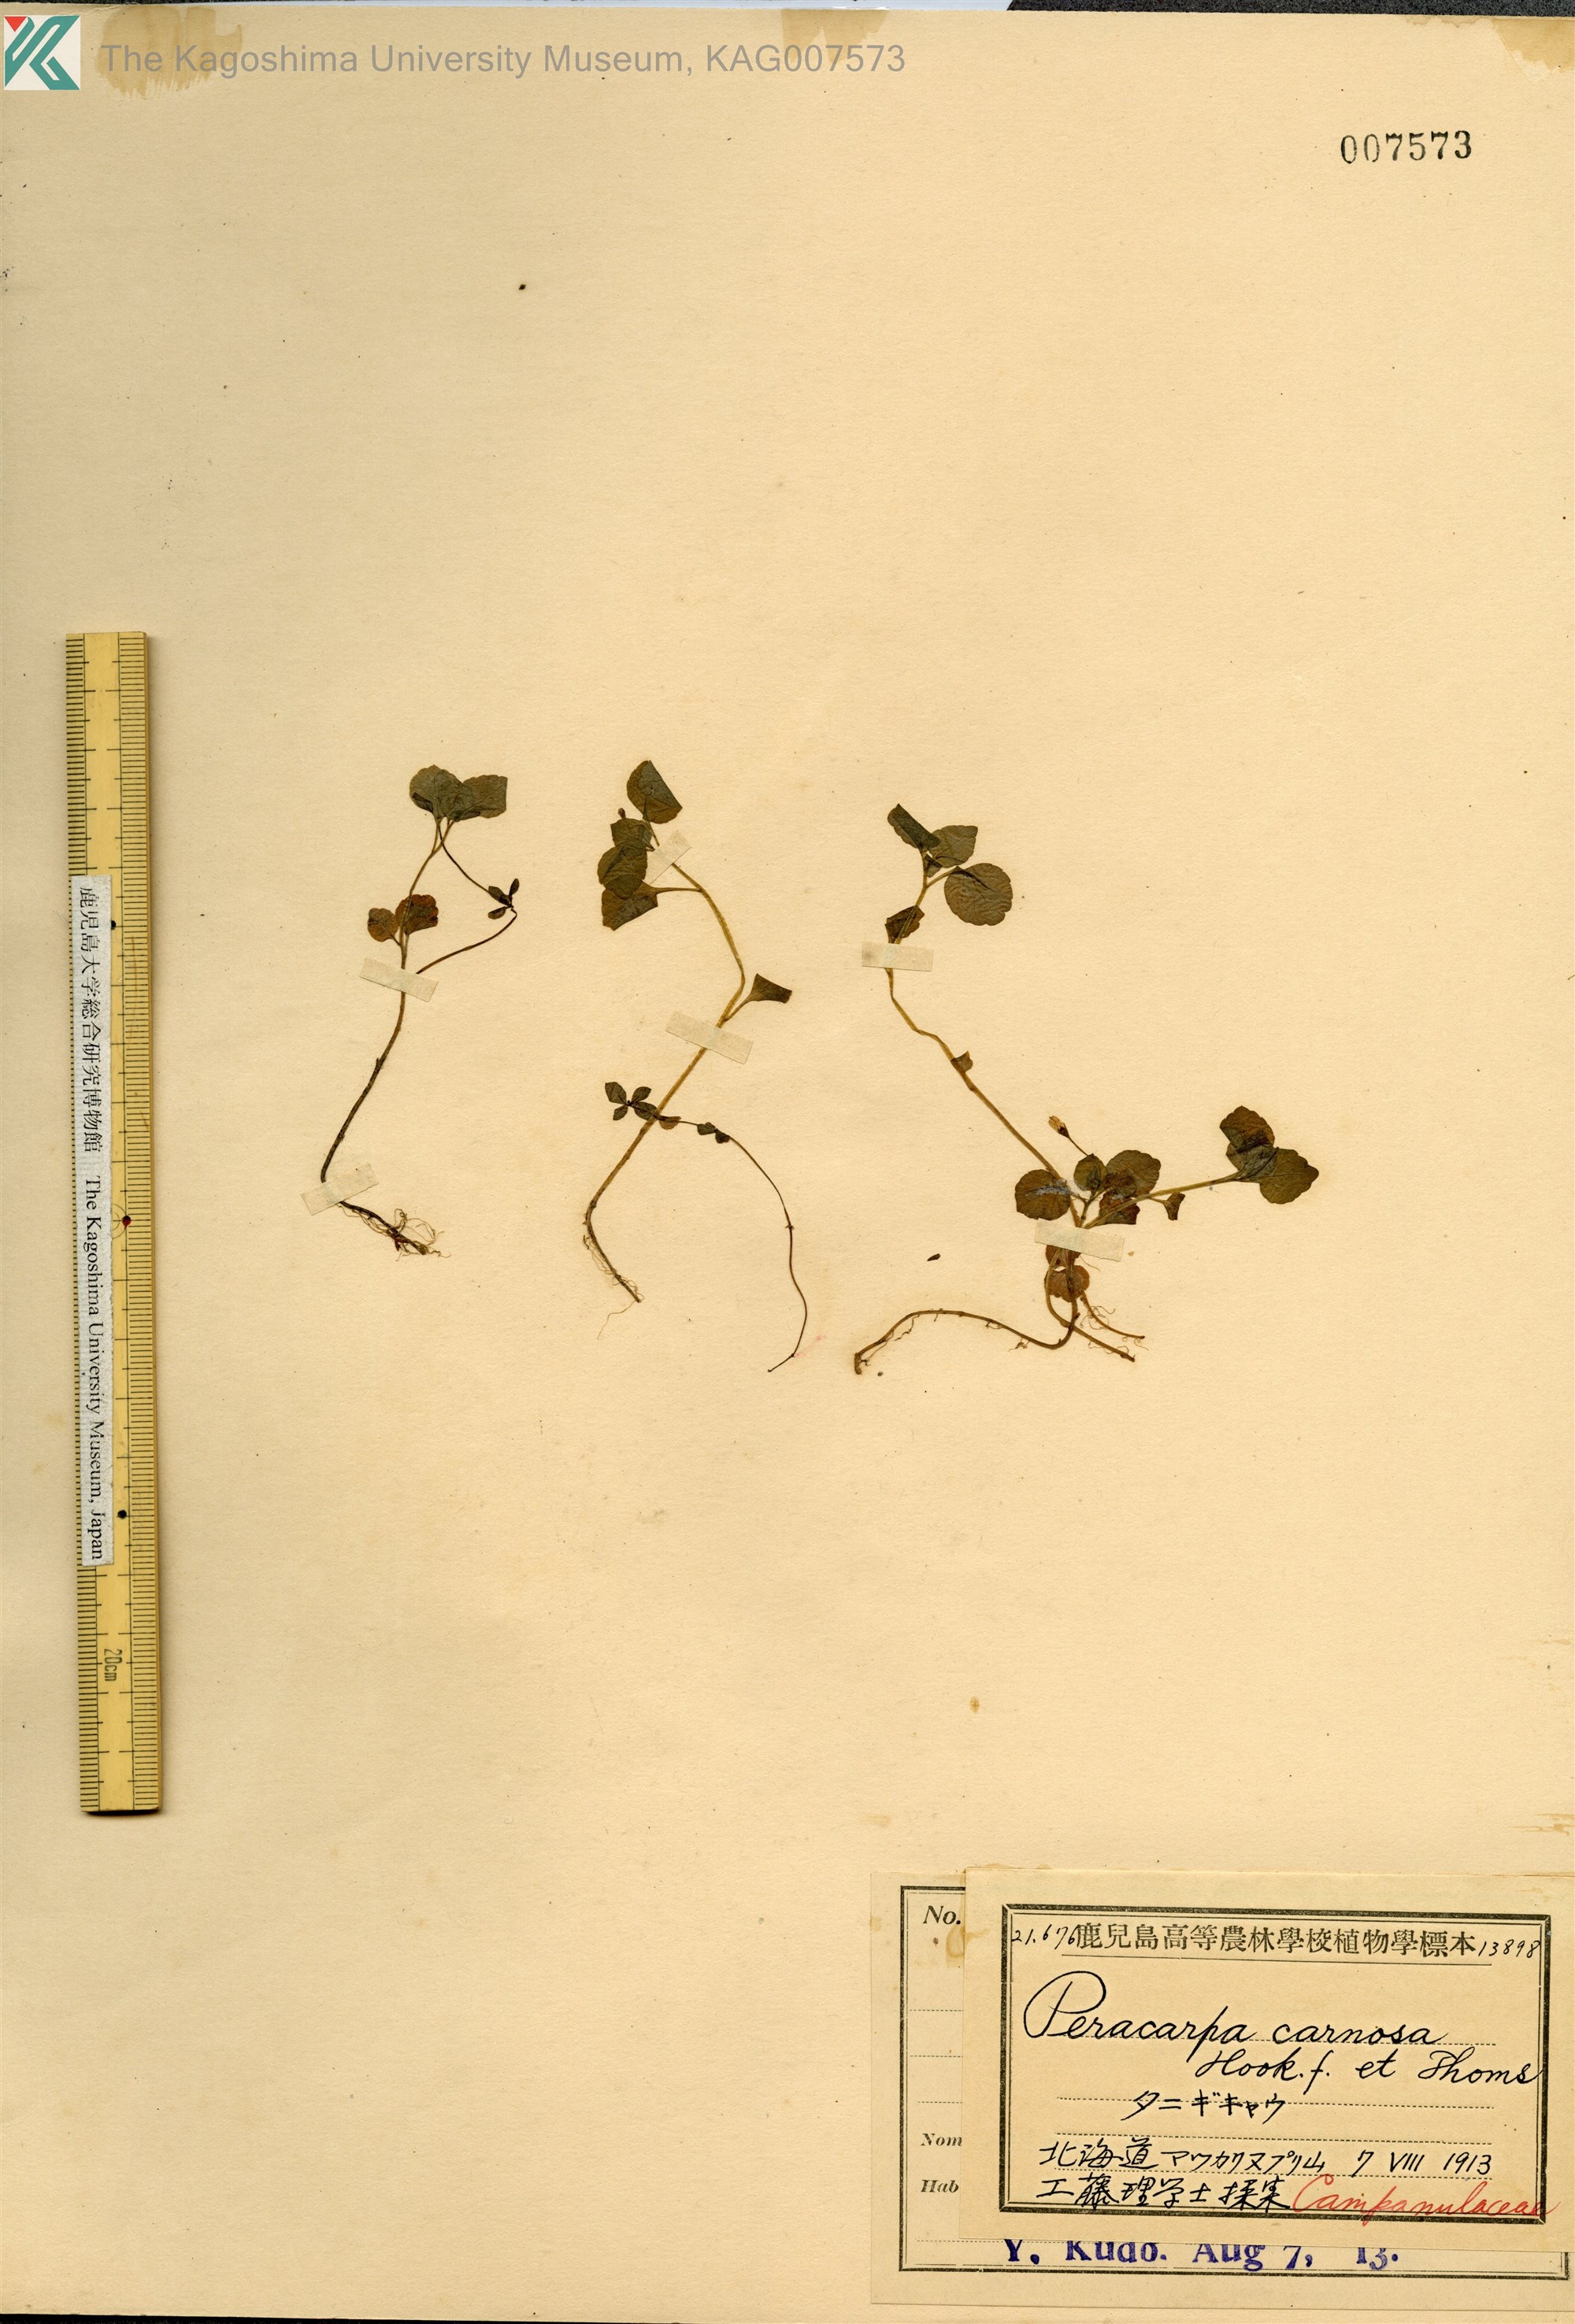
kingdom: Plantae
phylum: Tracheophyta
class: Magnoliopsida
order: Asterales
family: Campanulaceae
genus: Peracarpa
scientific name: Peracarpa carnosa
